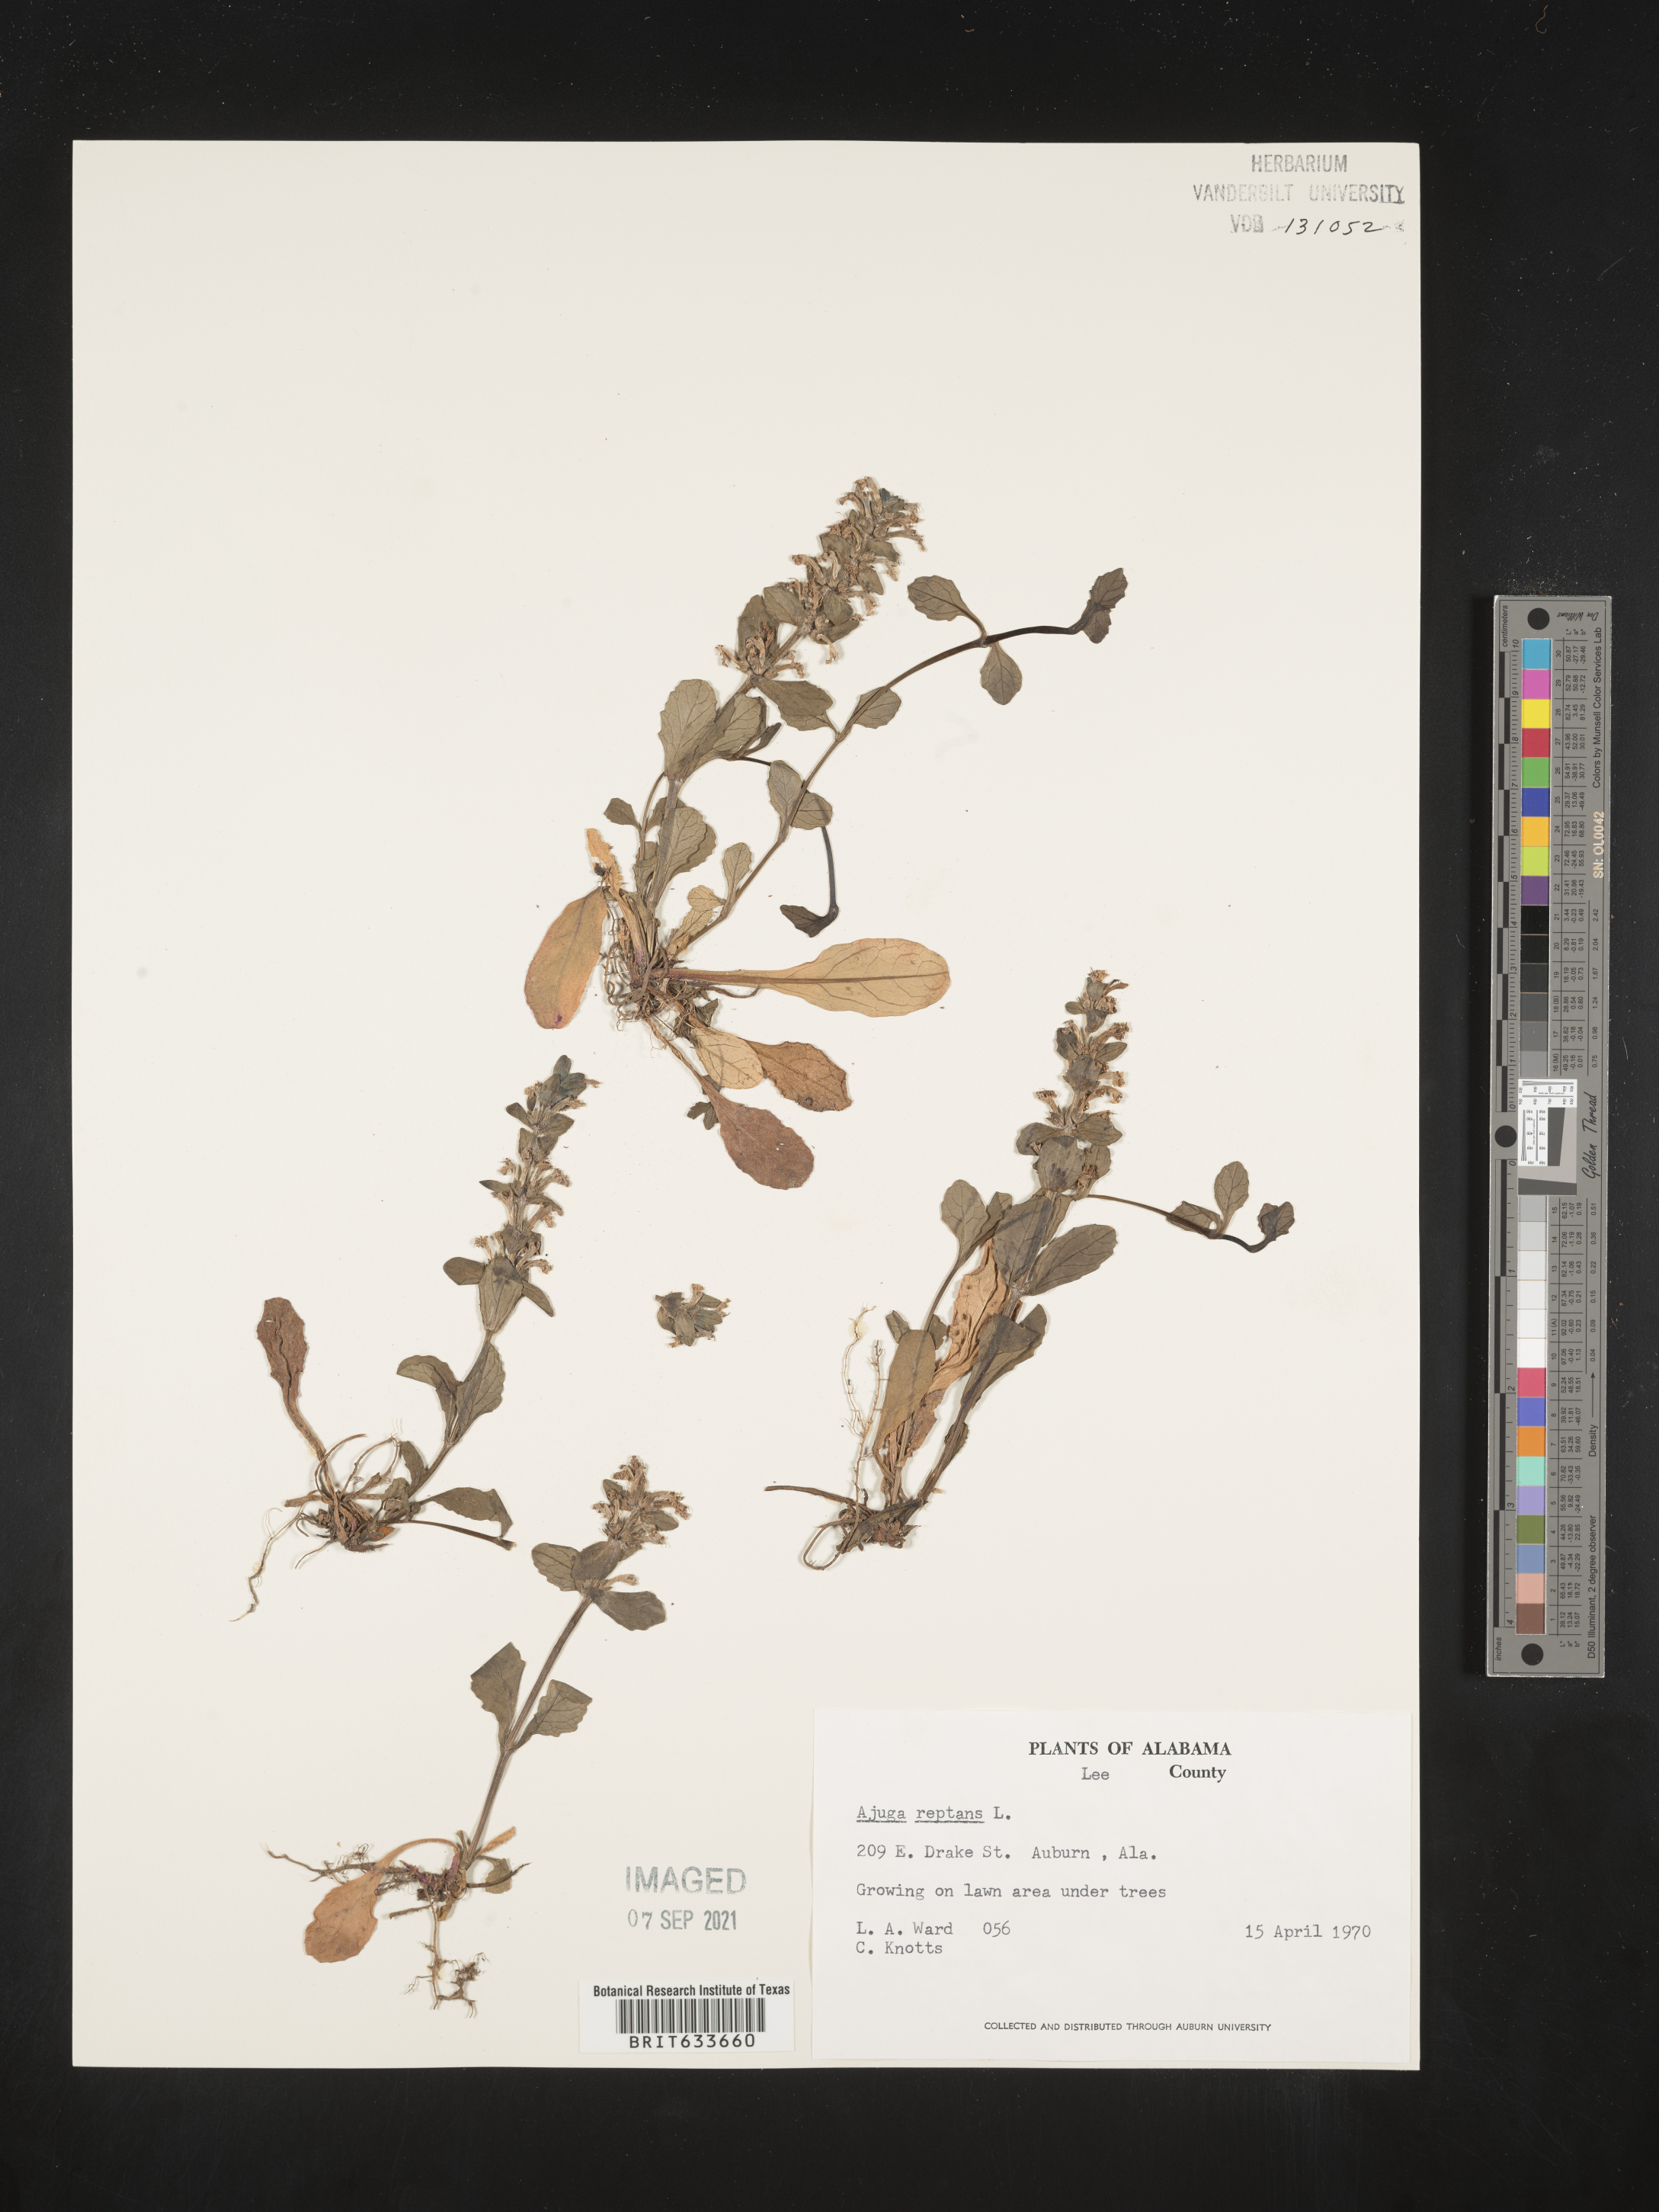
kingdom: Plantae
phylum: Tracheophyta
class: Magnoliopsida
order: Lamiales
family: Lamiaceae
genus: Ajuga
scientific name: Ajuga
